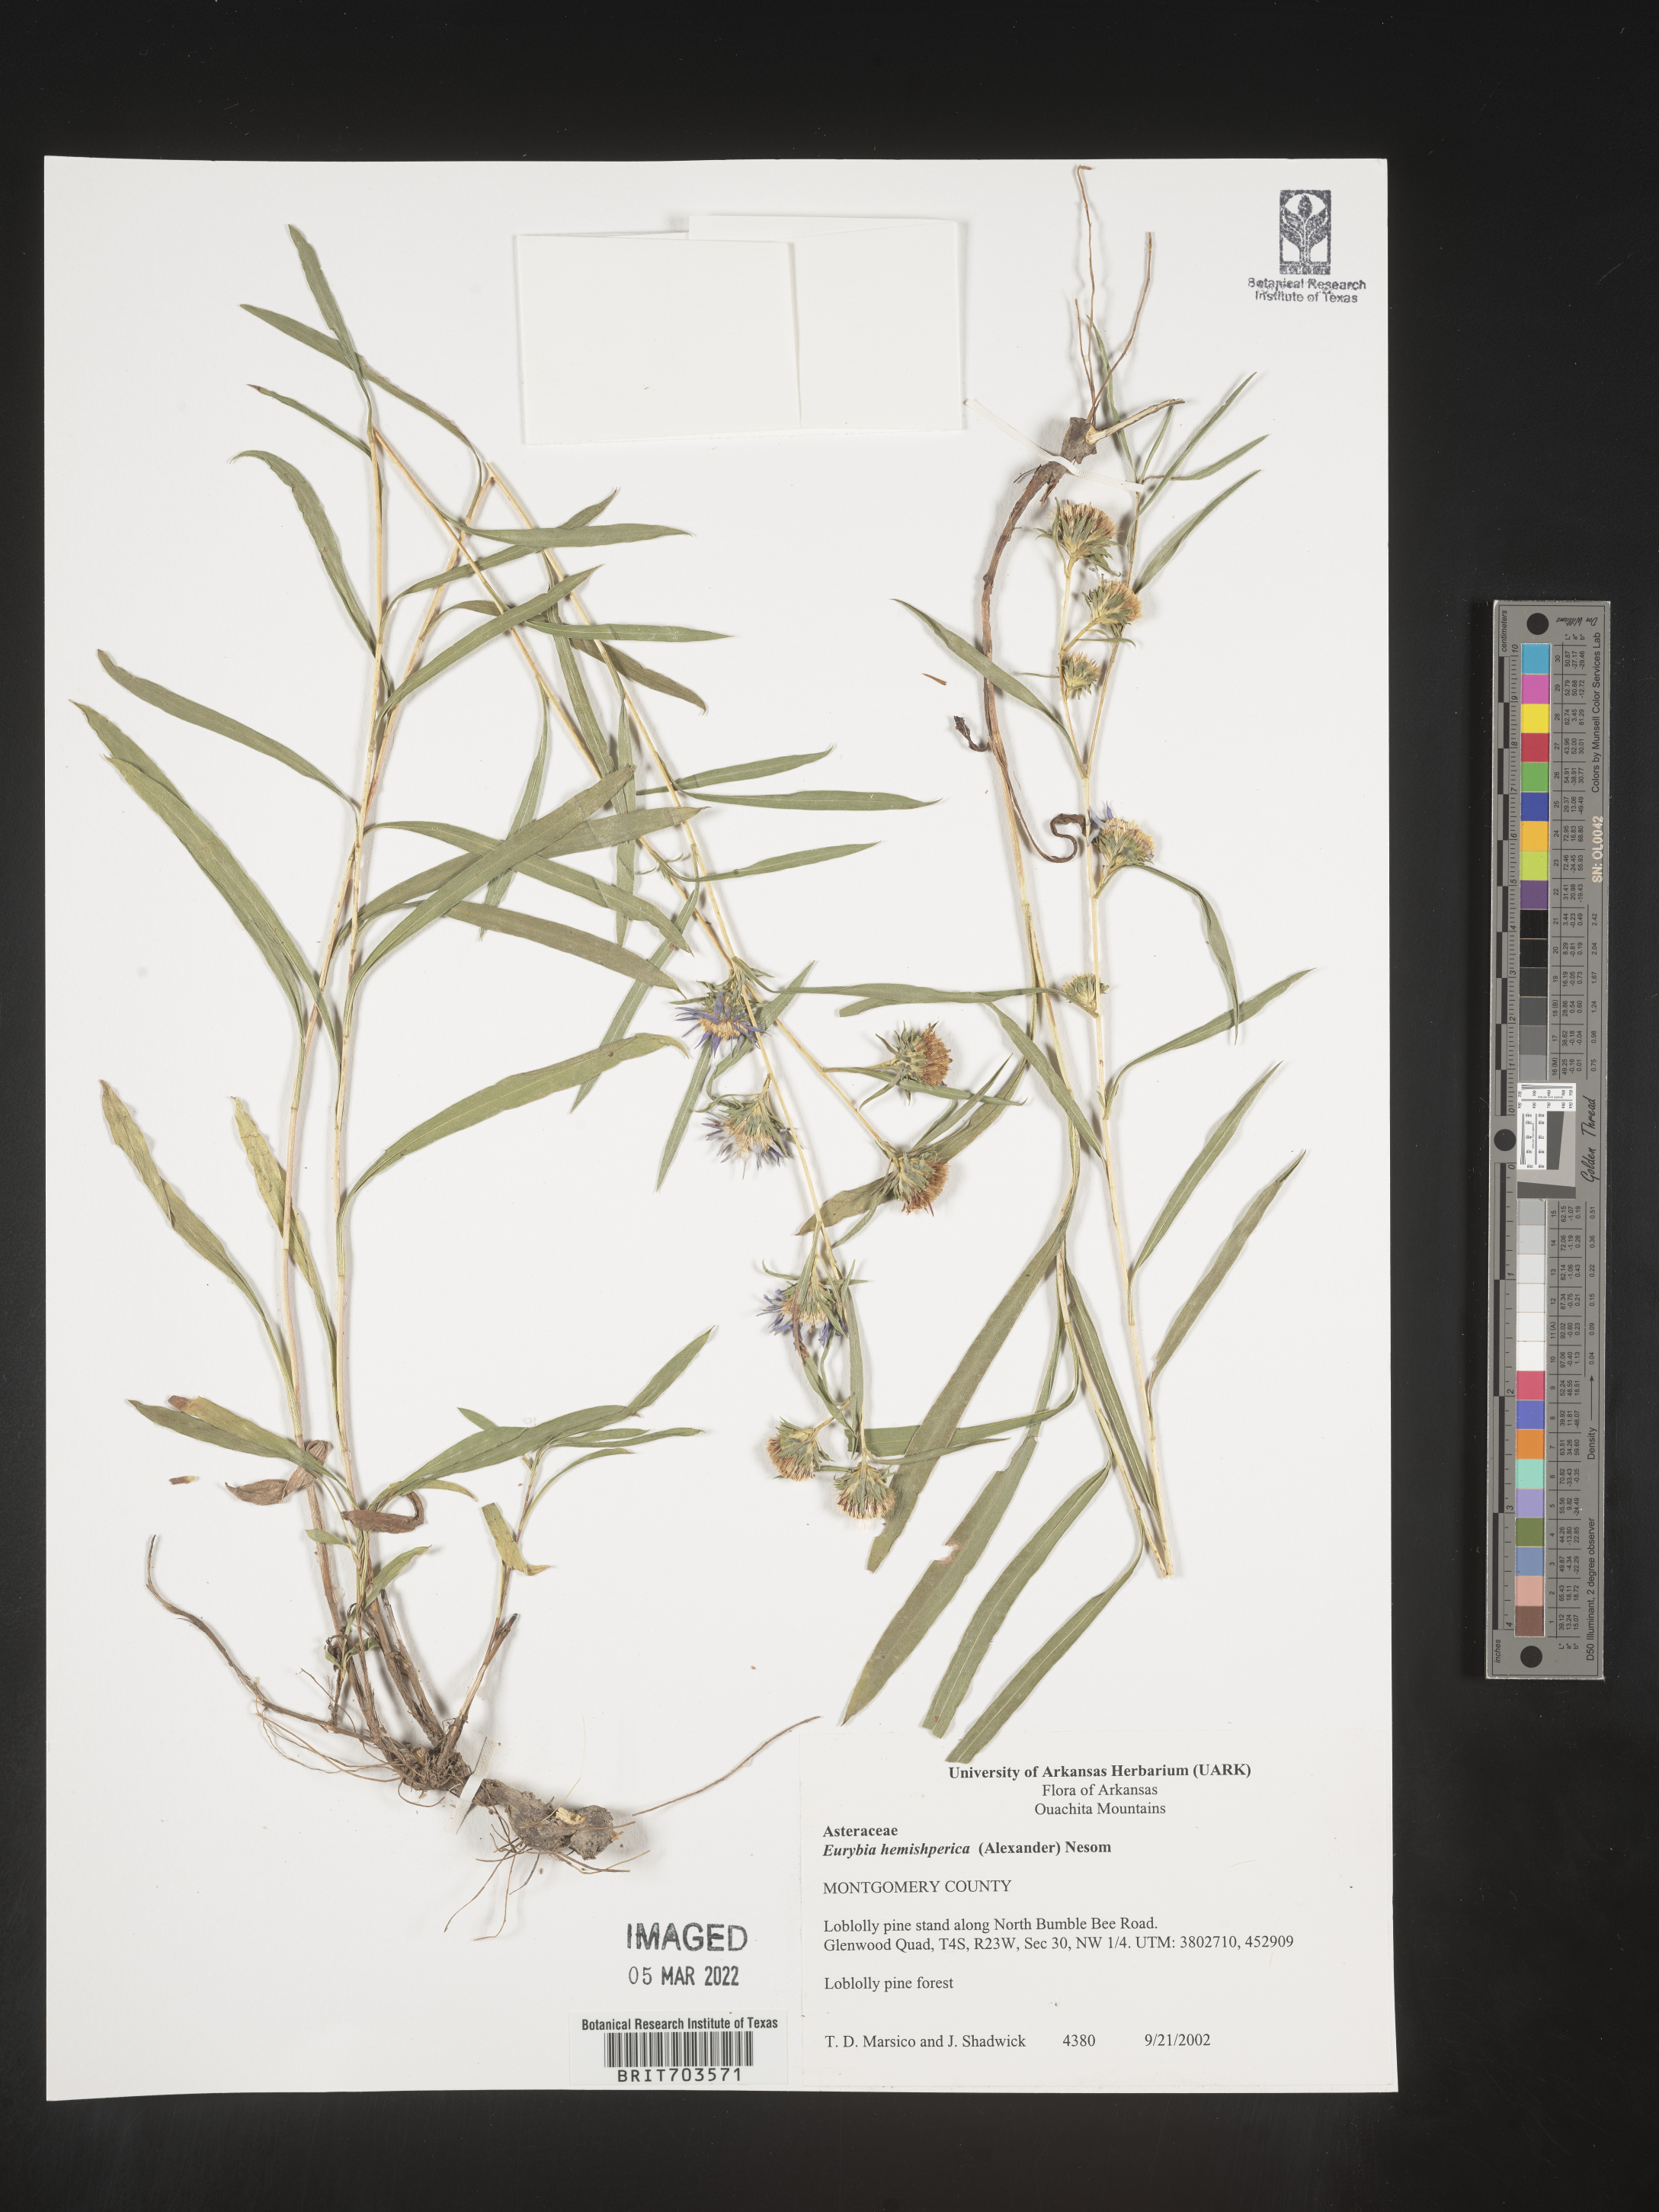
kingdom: Plantae
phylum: Tracheophyta
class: Magnoliopsida
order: Asterales
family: Asteraceae
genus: Eurybia
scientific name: Eurybia hemispherica
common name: Showy aster
